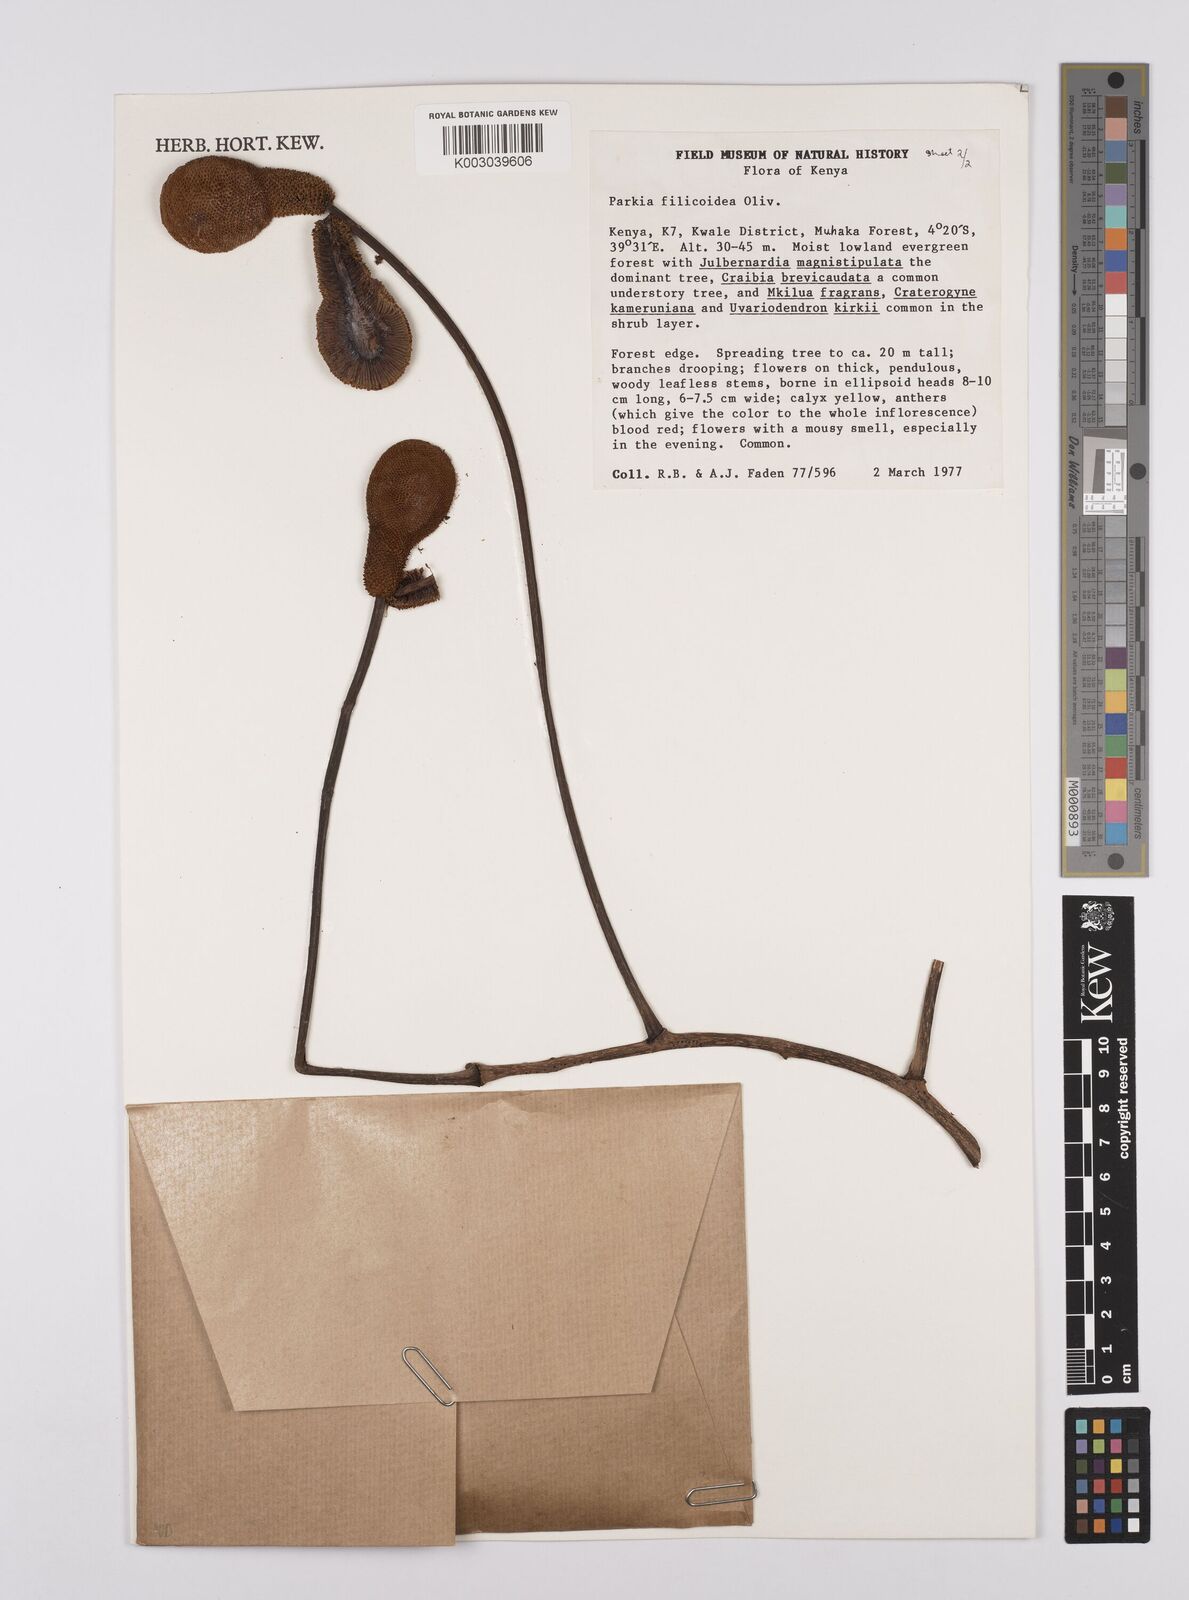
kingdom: Plantae
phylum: Tracheophyta
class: Magnoliopsida
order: Fabales
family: Fabaceae
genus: Parkia
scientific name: Parkia filicoidea
